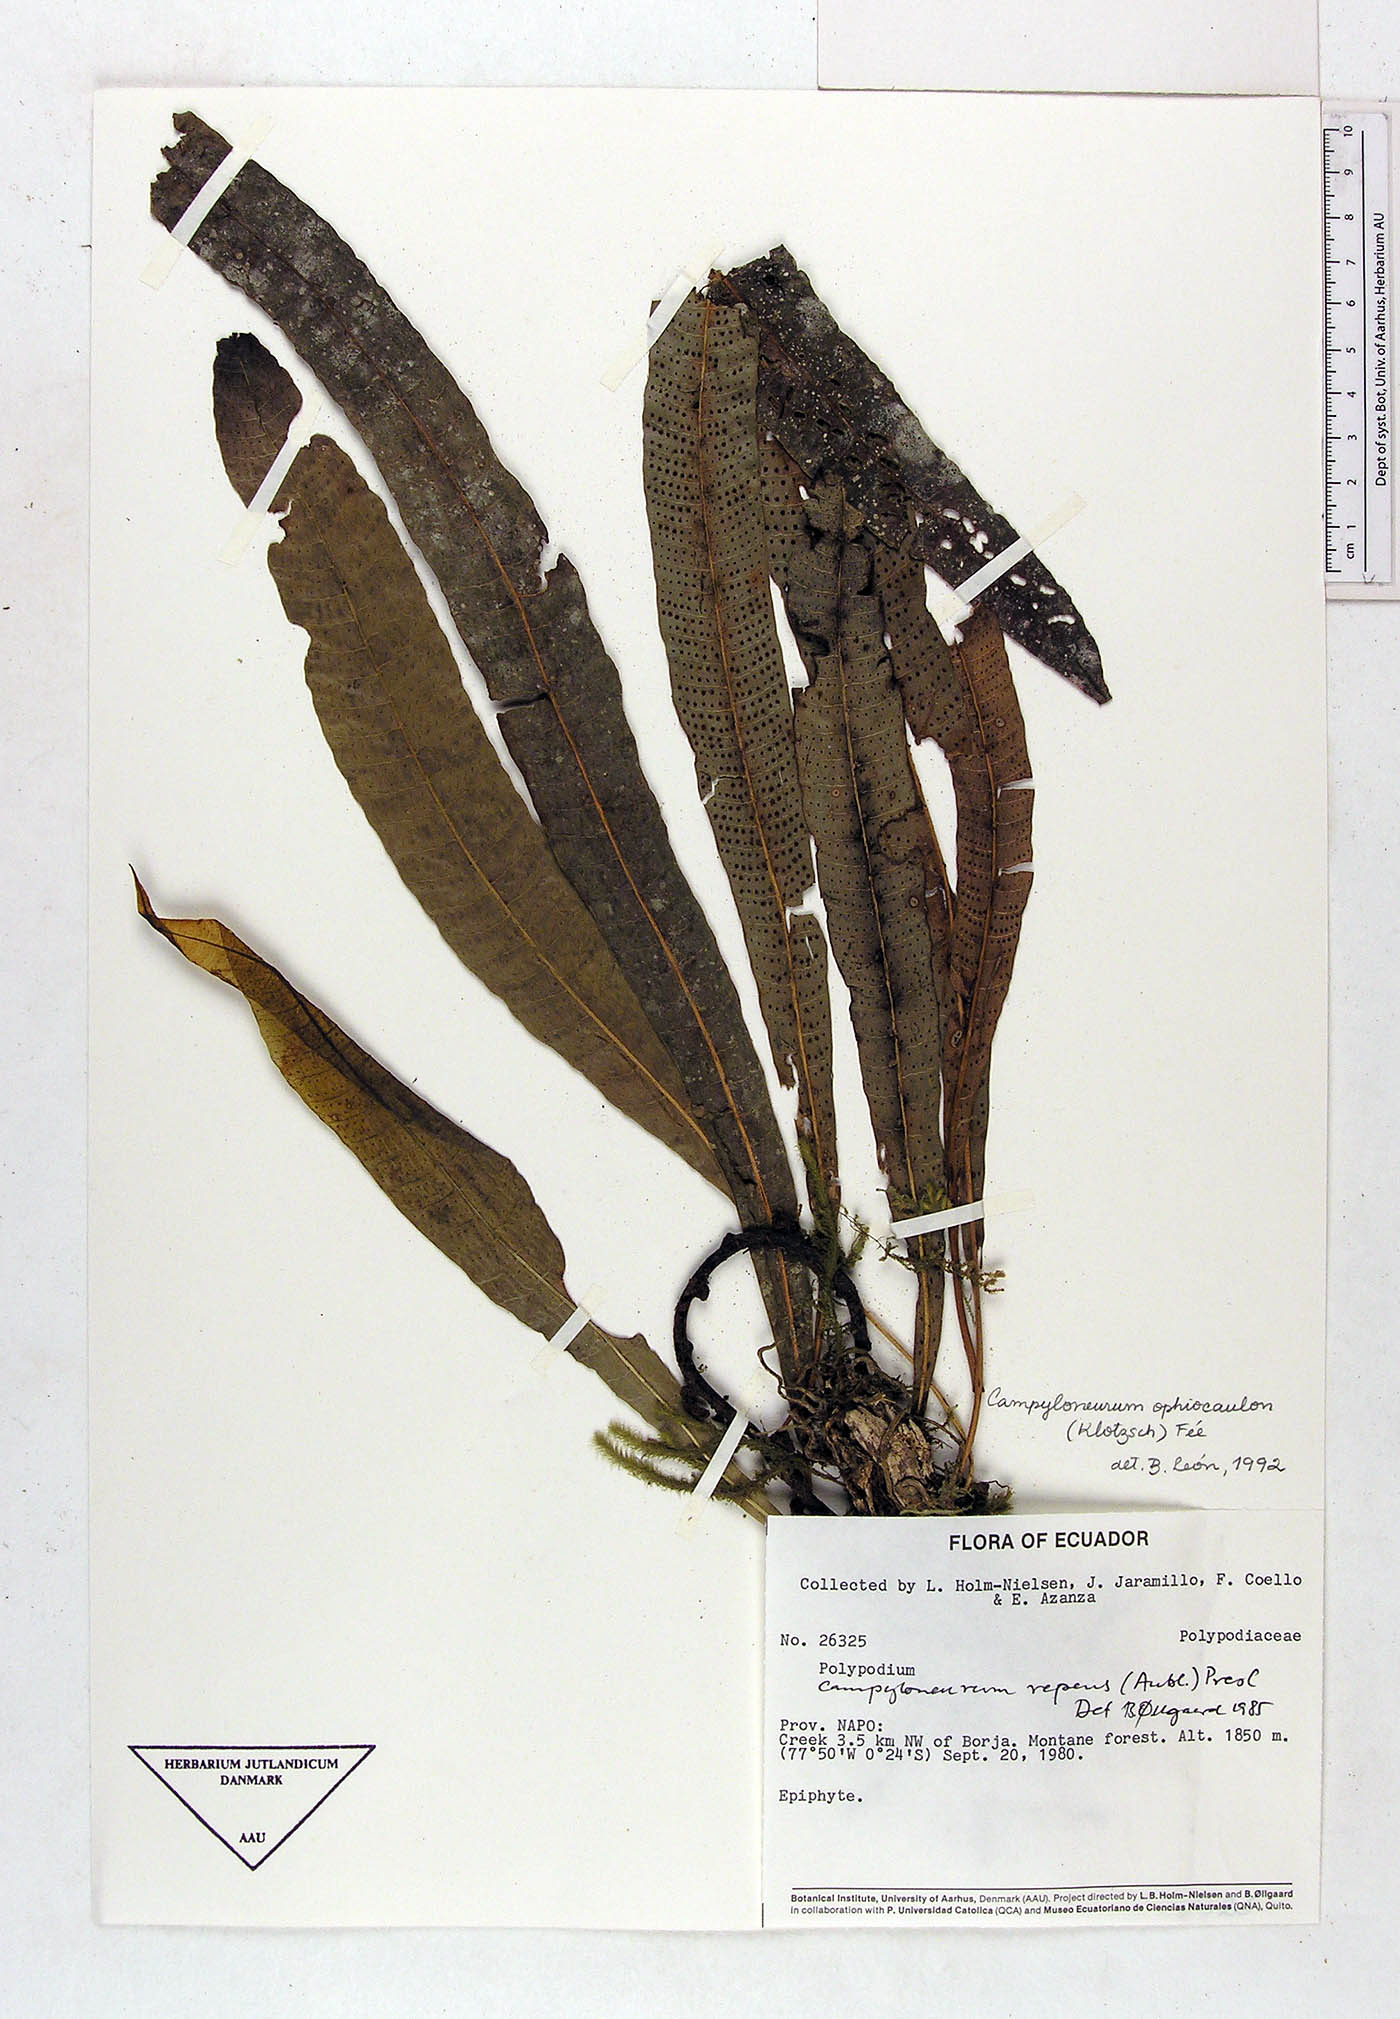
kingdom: Plantae
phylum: Tracheophyta
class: Polypodiopsida
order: Polypodiales
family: Polypodiaceae
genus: Campyloneurum
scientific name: Campyloneurum ophiocaulon
